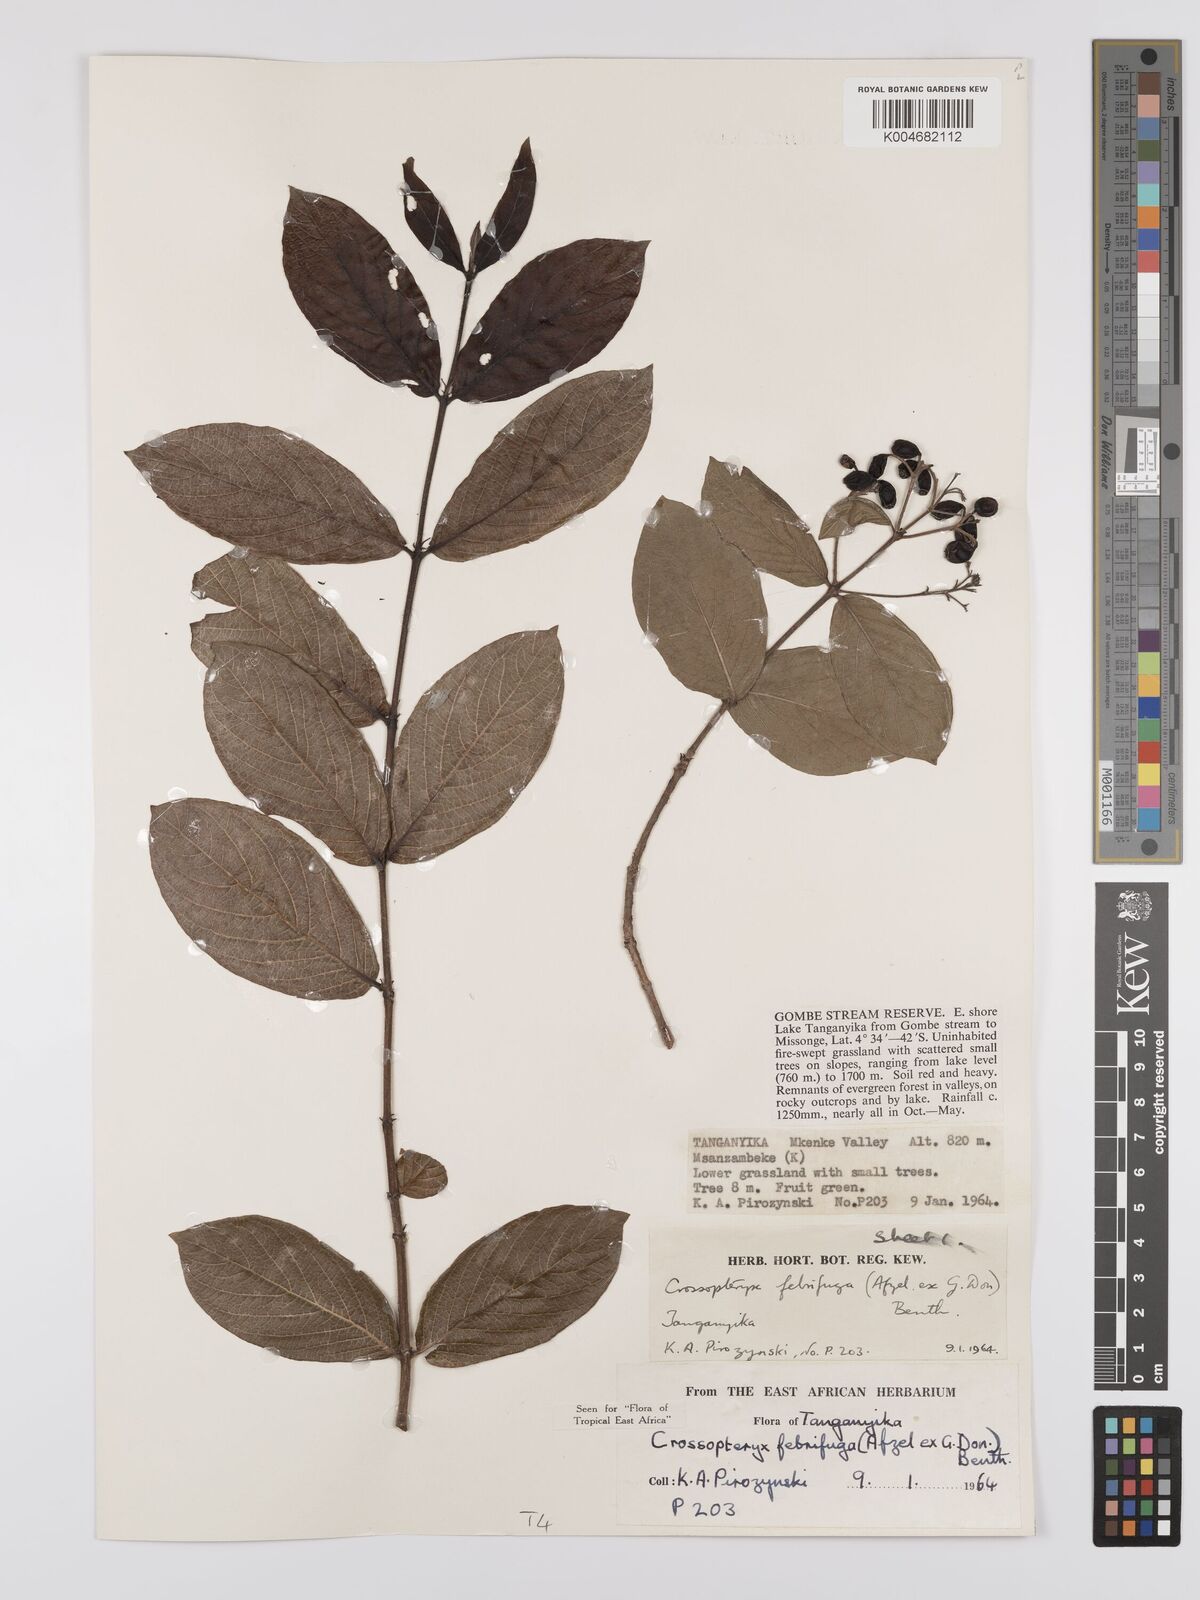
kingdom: Plantae
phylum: Tracheophyta
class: Magnoliopsida
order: Gentianales
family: Rubiaceae
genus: Crossopteryx
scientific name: Crossopteryx febrifuga
